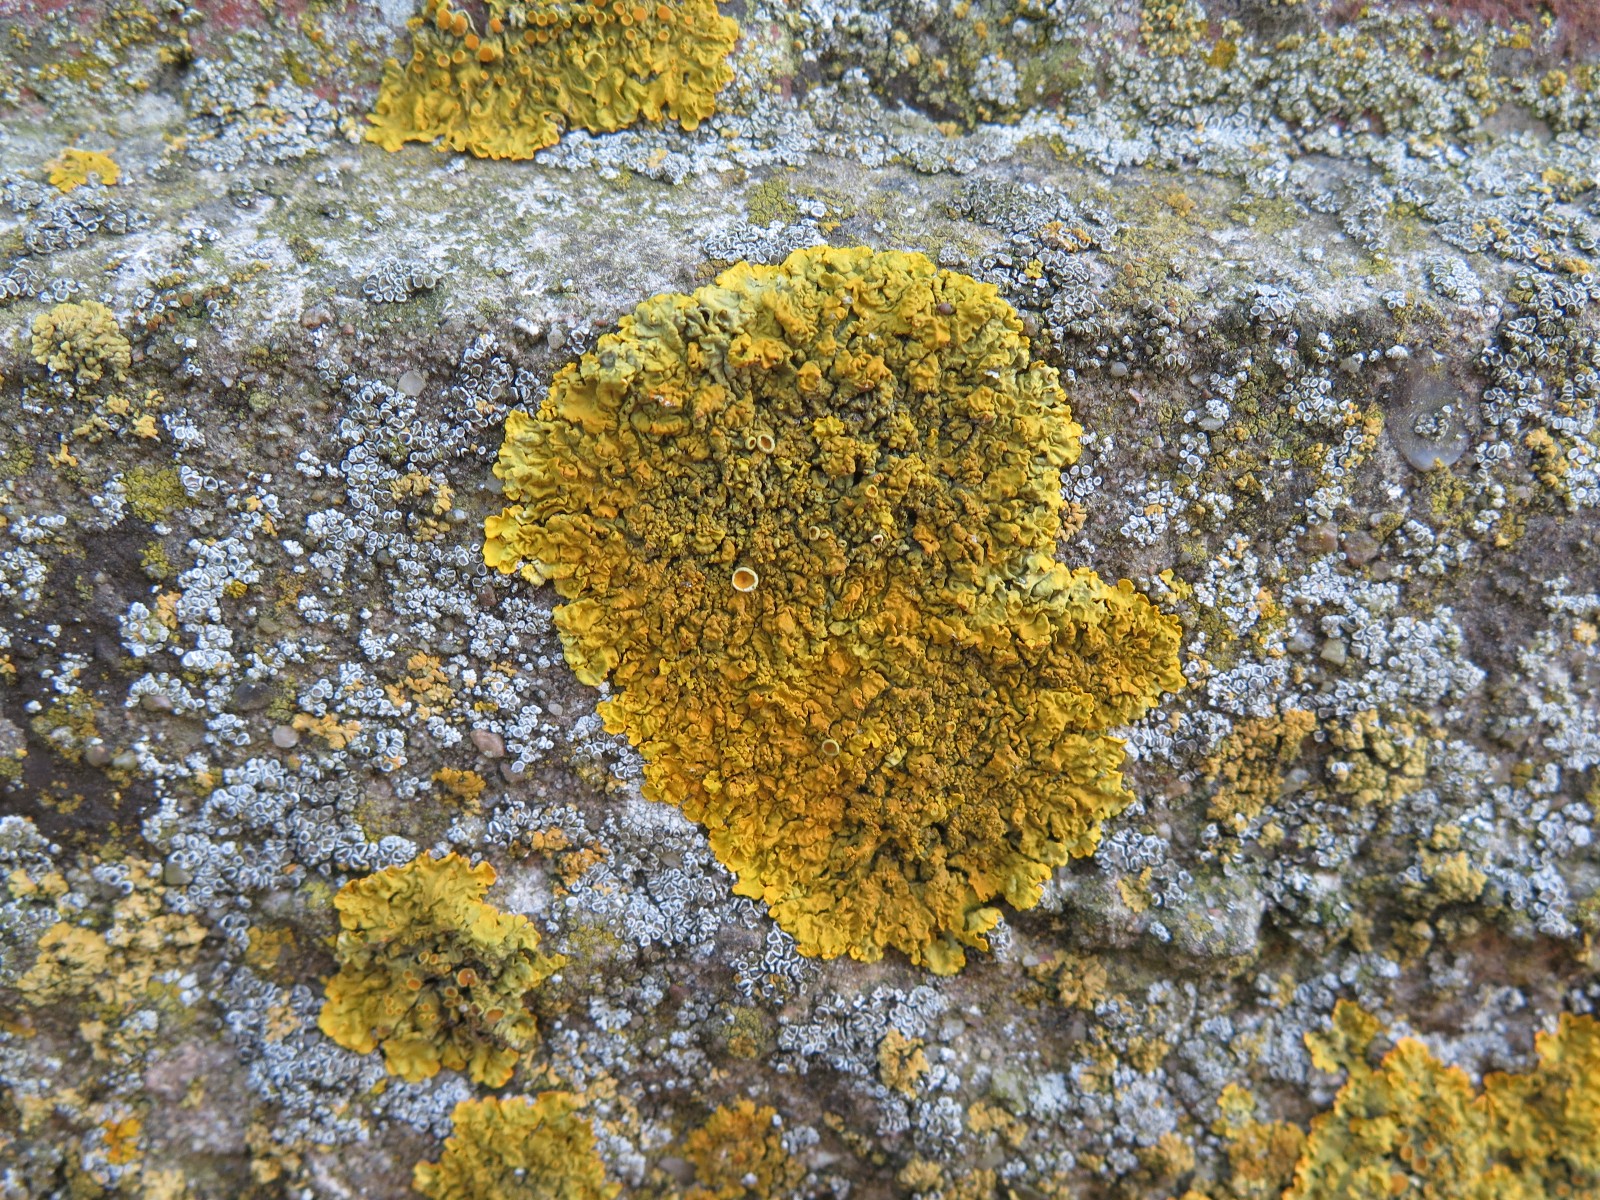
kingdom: Fungi
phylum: Ascomycota
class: Lecanoromycetes
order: Teloschistales
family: Teloschistaceae
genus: Xanthoria
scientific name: Xanthoria calcicola
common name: vortet væggelav
